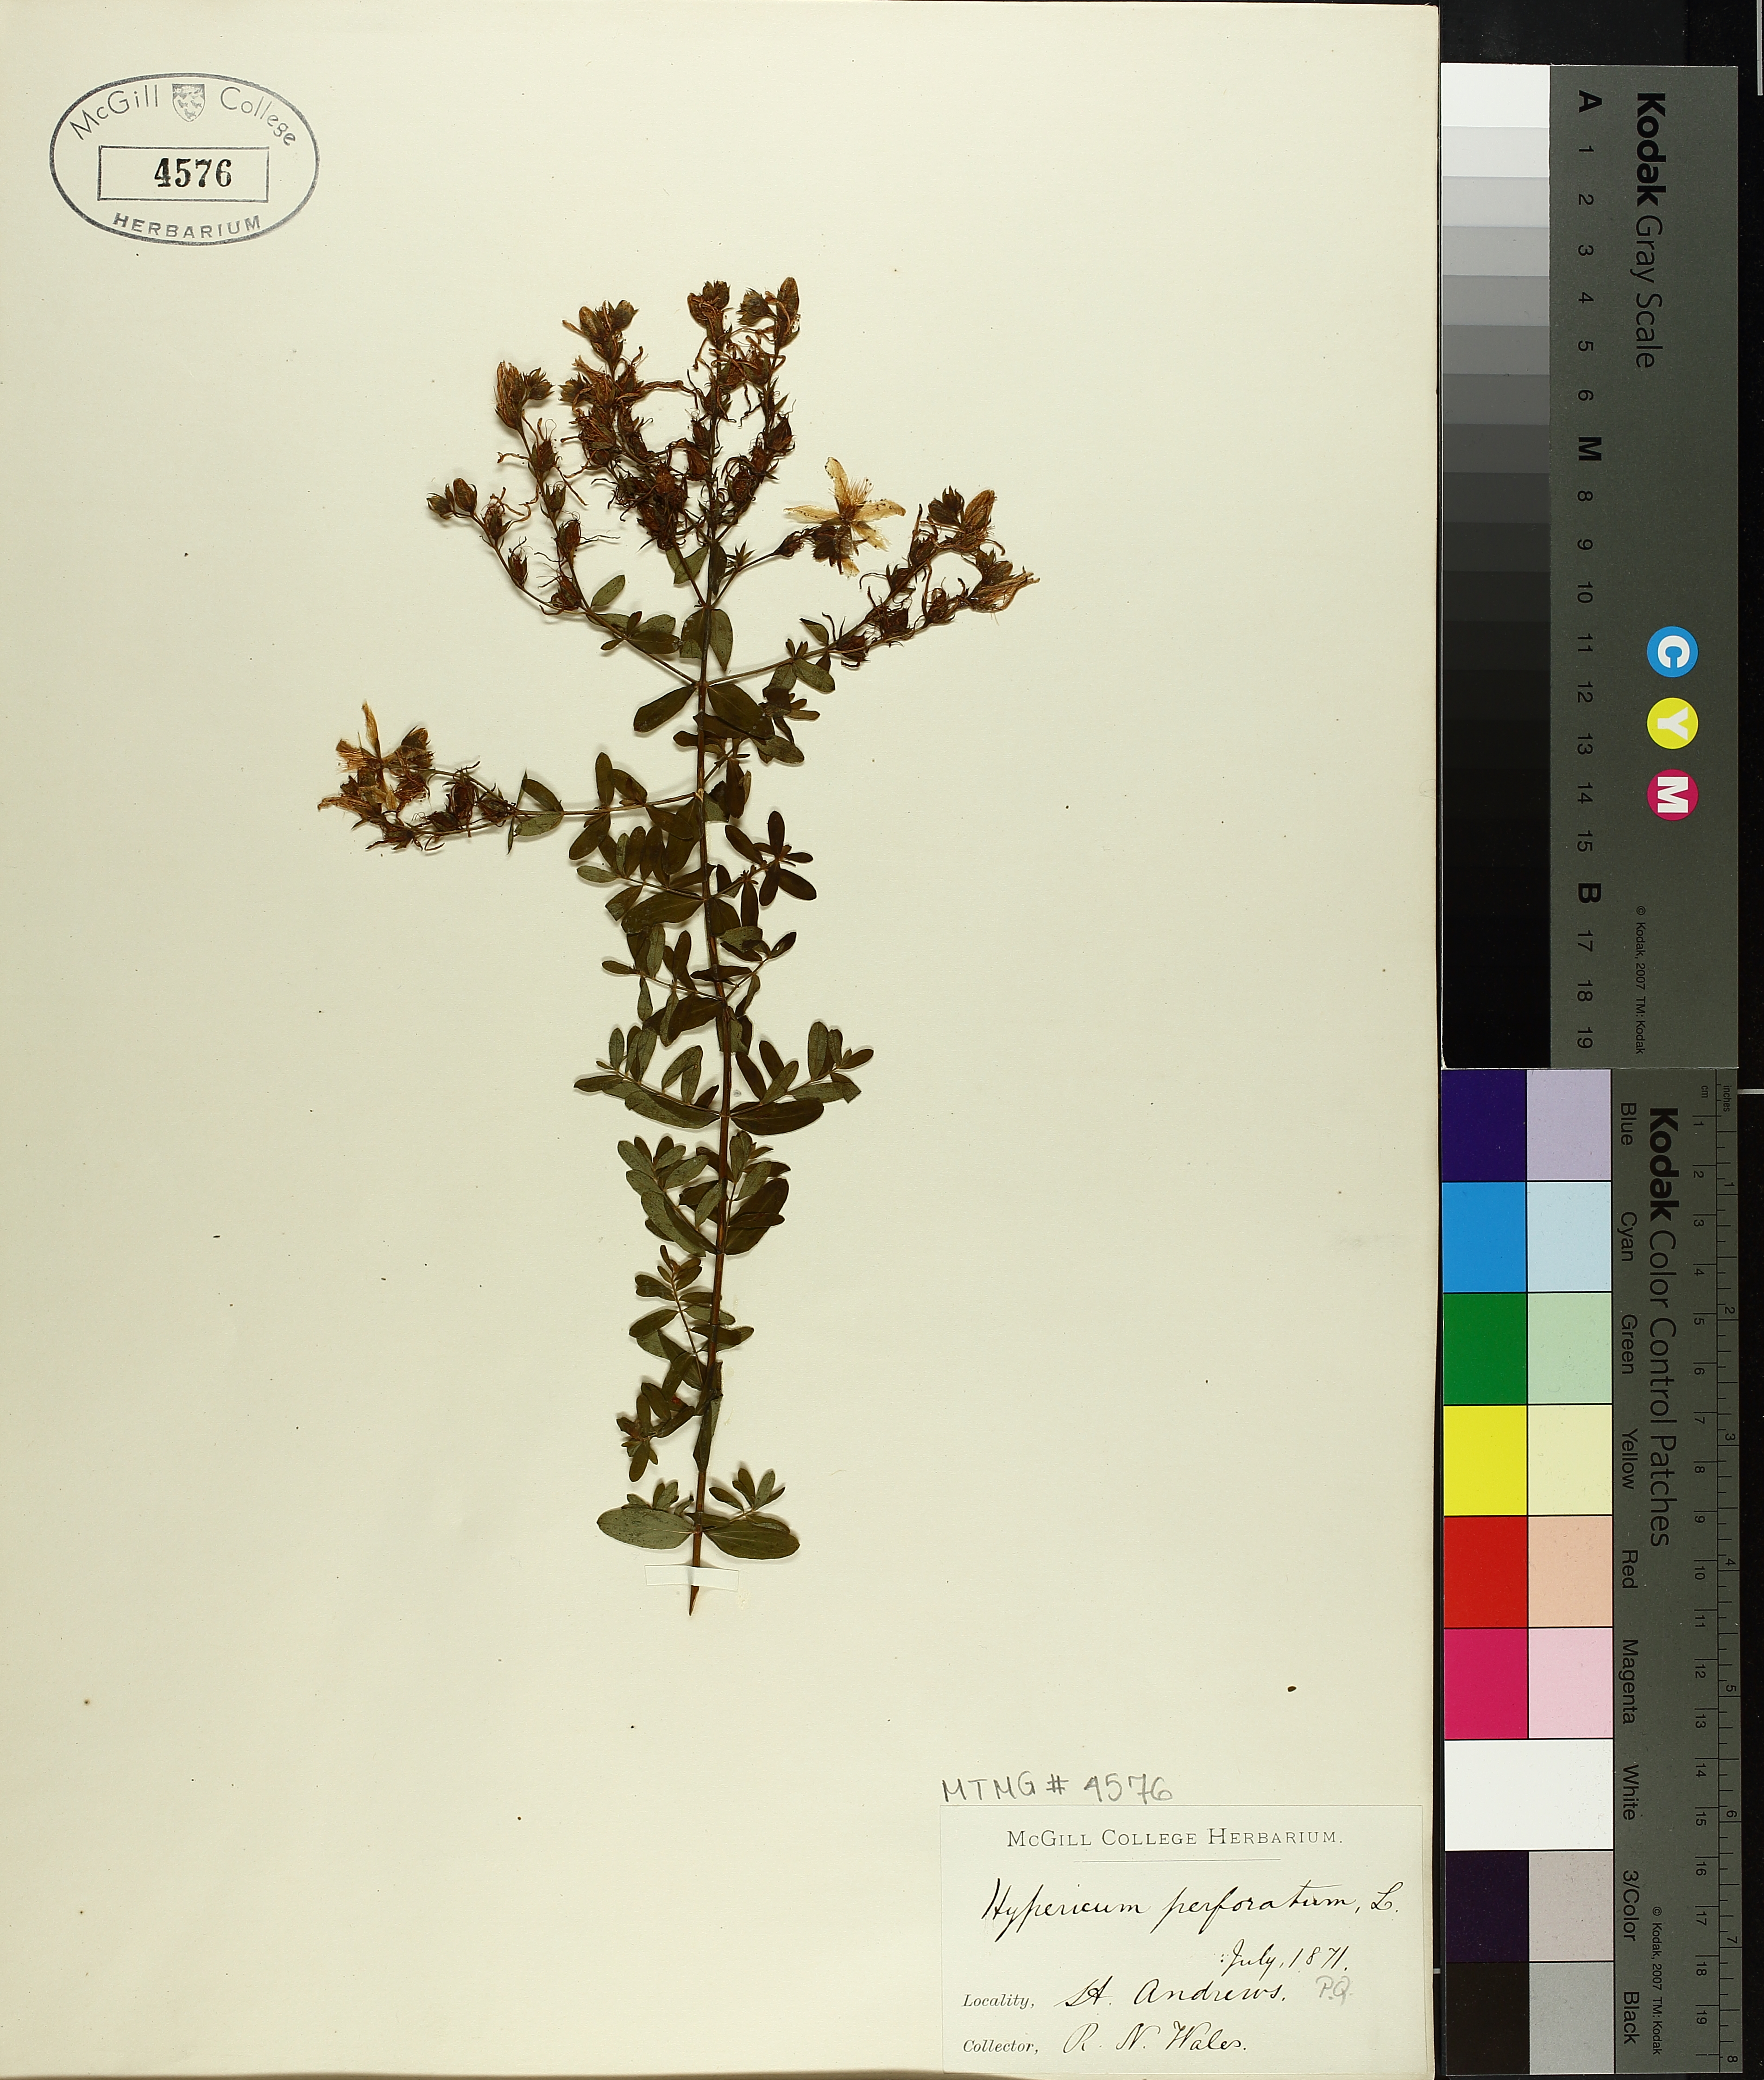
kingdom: Plantae
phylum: Tracheophyta
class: Magnoliopsida
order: Malpighiales
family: Hypericaceae
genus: Hypericum
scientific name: Hypericum perforatum
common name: Common st. johnswort
